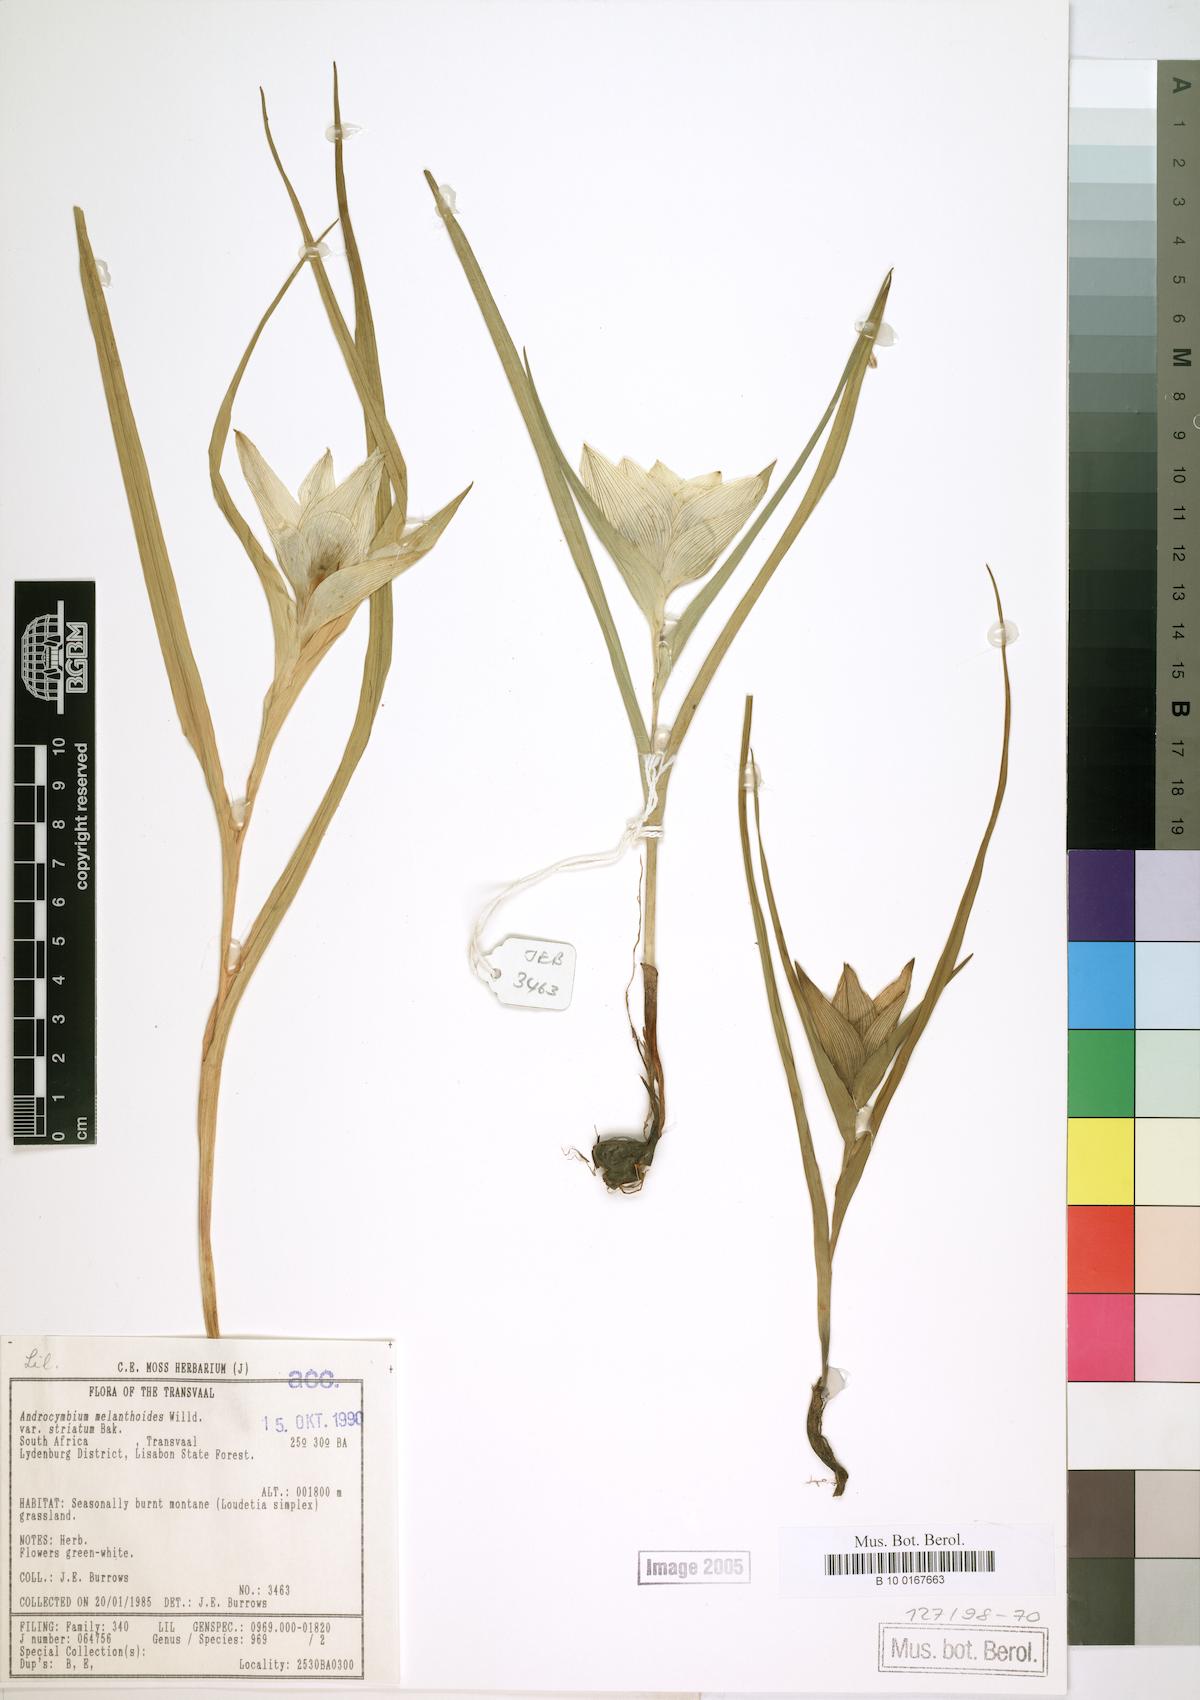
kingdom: Plantae
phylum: Tracheophyta
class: Liliopsida
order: Liliales
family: Colchicaceae
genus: Colchicum
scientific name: Colchicum striatum
